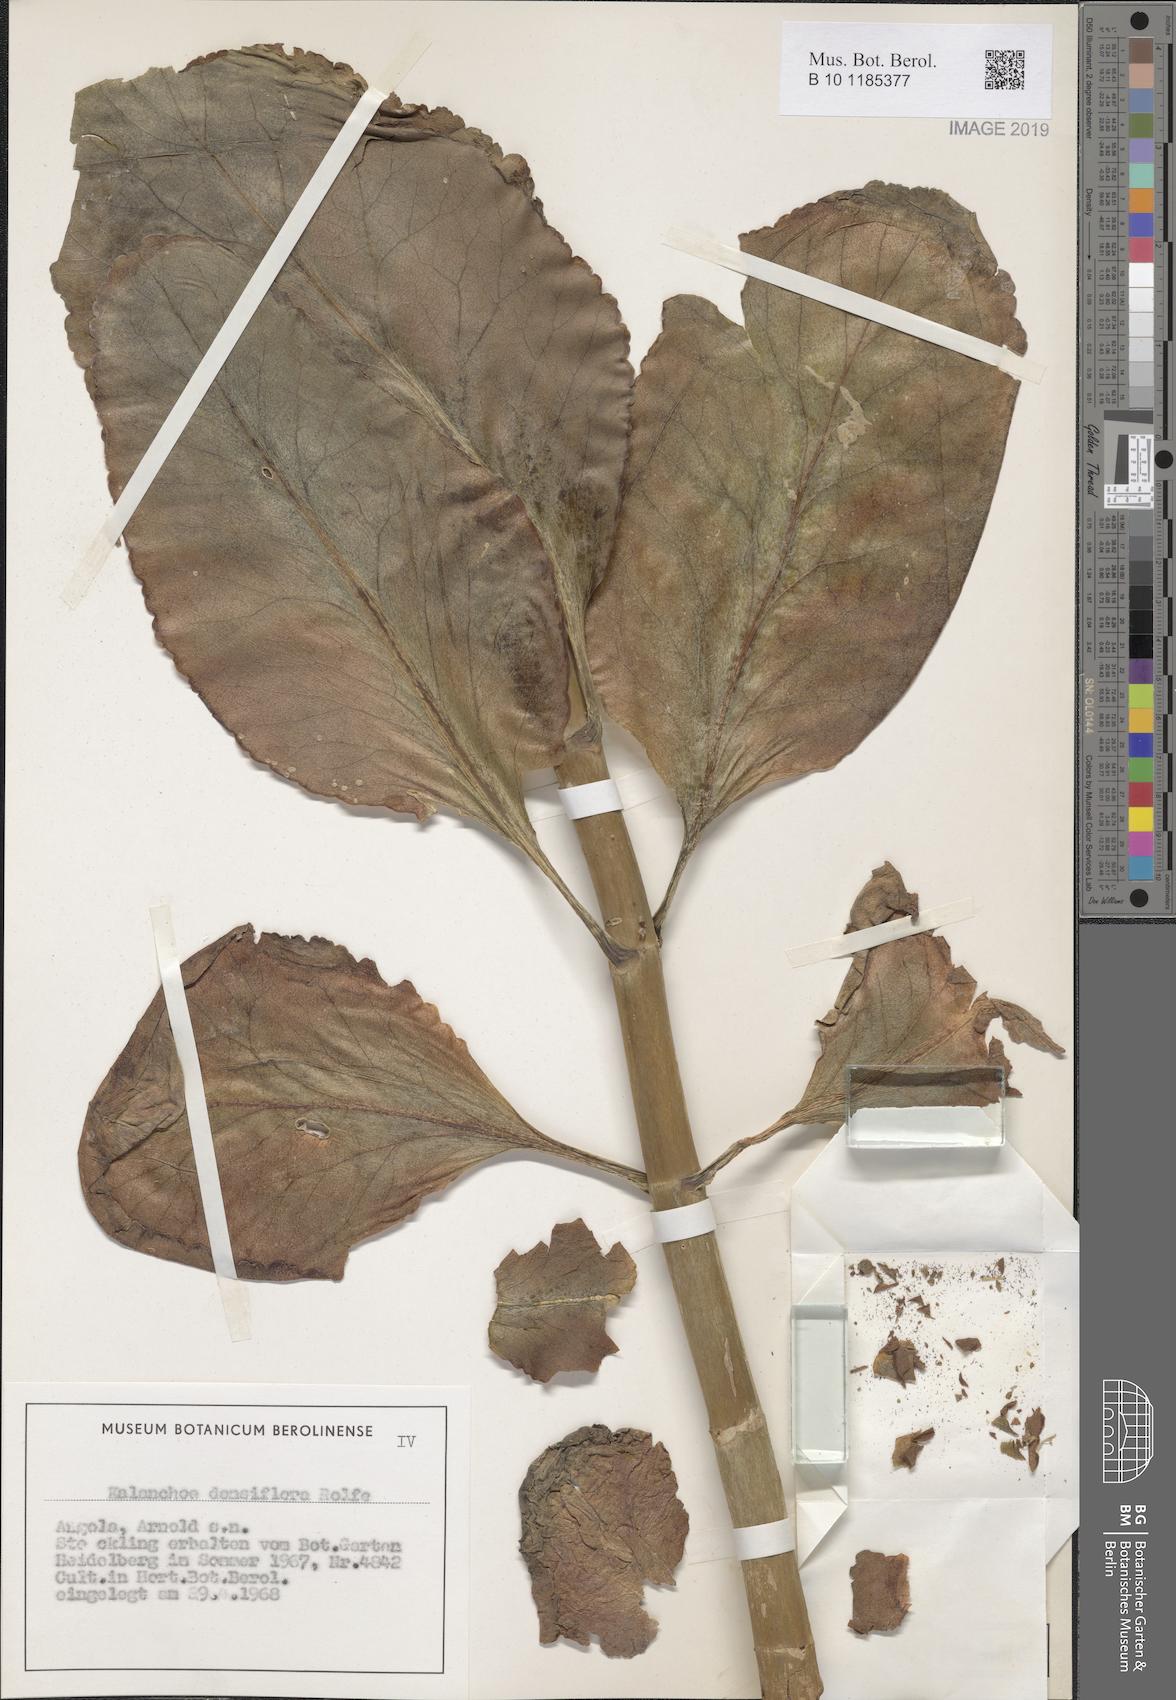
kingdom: Plantae
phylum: Tracheophyta
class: Magnoliopsida
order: Saxifragales
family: Crassulaceae
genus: Kalanchoe
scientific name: Kalanchoe densiflora
